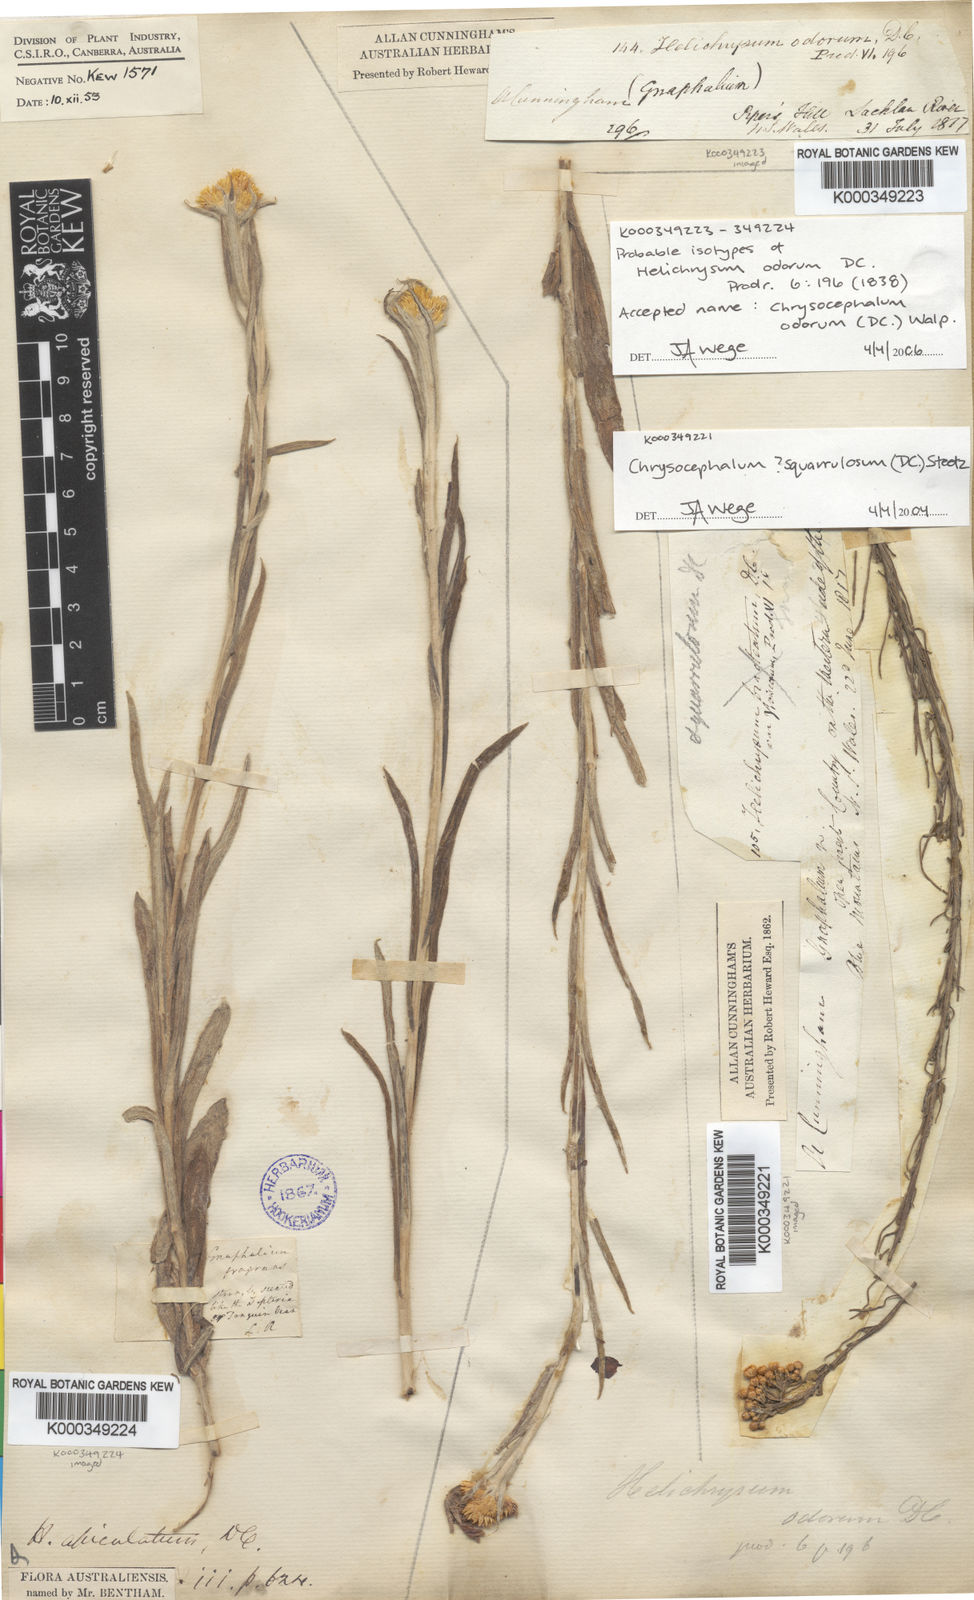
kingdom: Plantae
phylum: Tracheophyta
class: Magnoliopsida
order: Asterales
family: Asteraceae
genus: Chrysocephalum
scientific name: Chrysocephalum apiculatum
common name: Common everlasting
